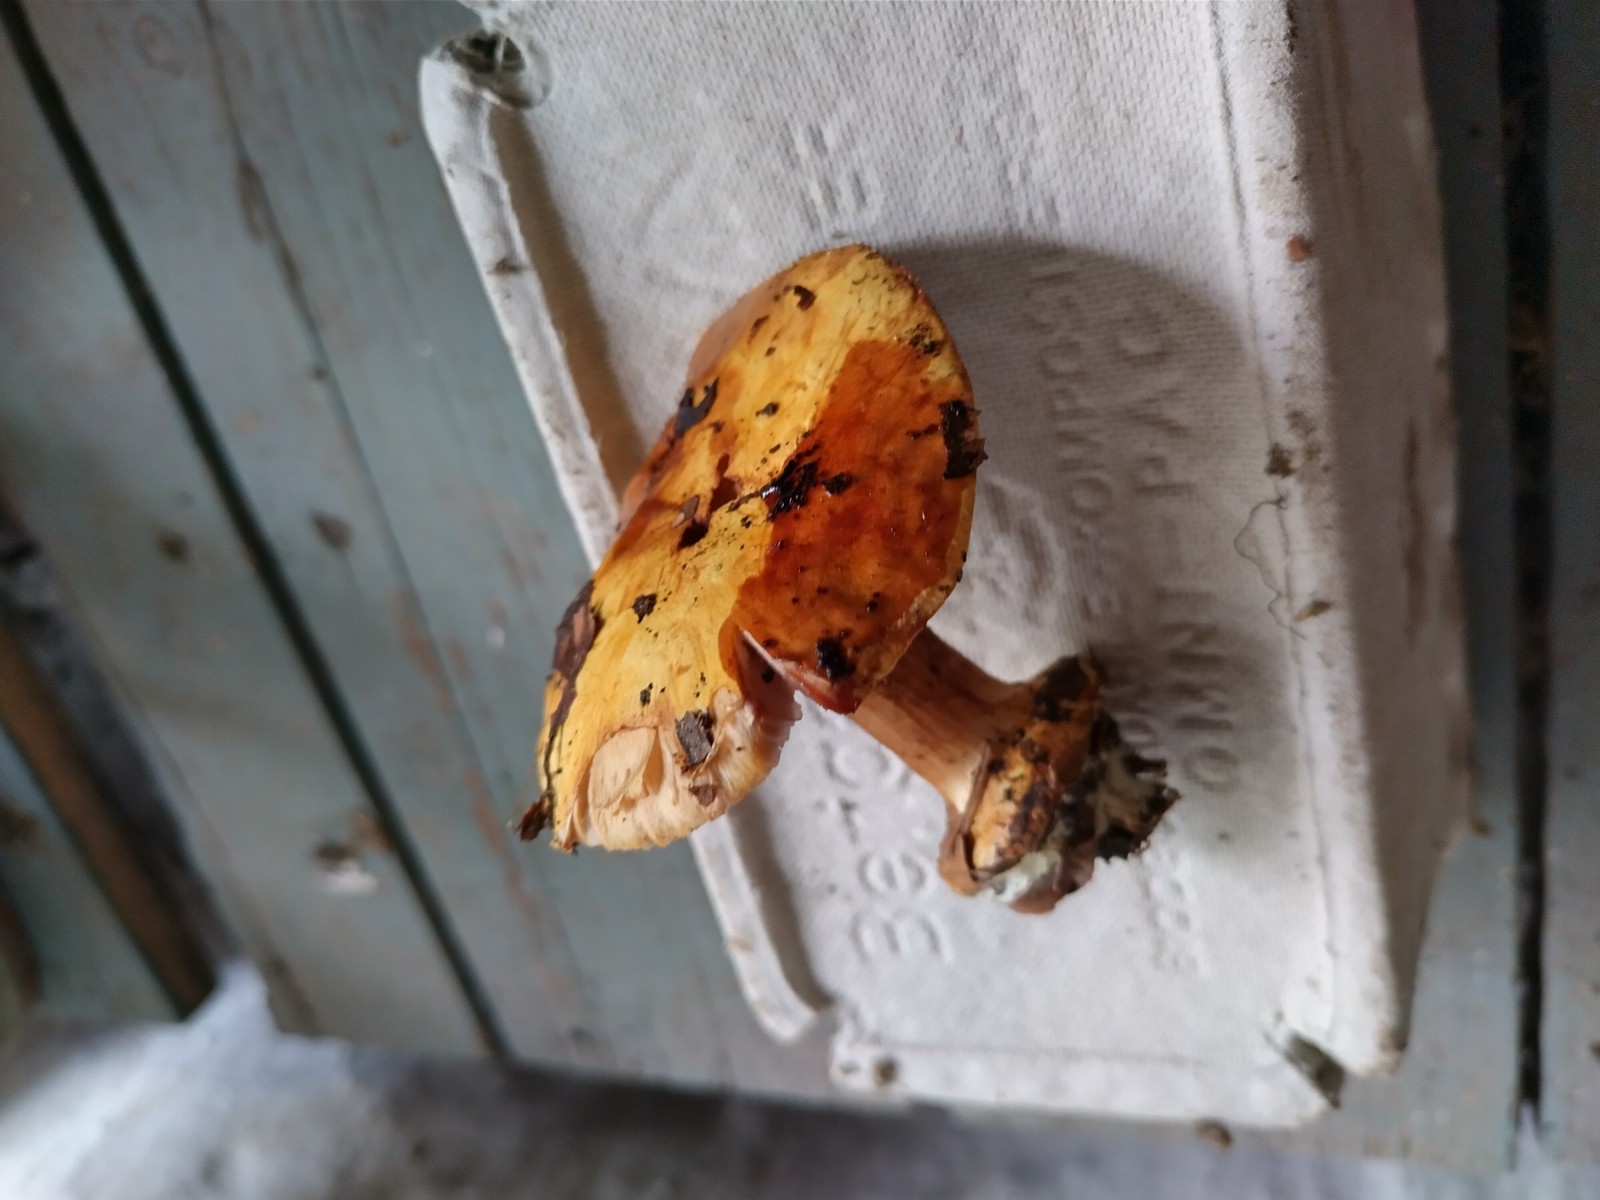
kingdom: Fungi
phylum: Basidiomycota
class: Agaricomycetes
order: Agaricales
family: Cortinariaceae
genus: Calonarius
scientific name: Calonarius callochrous
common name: lillabladet slørhat
